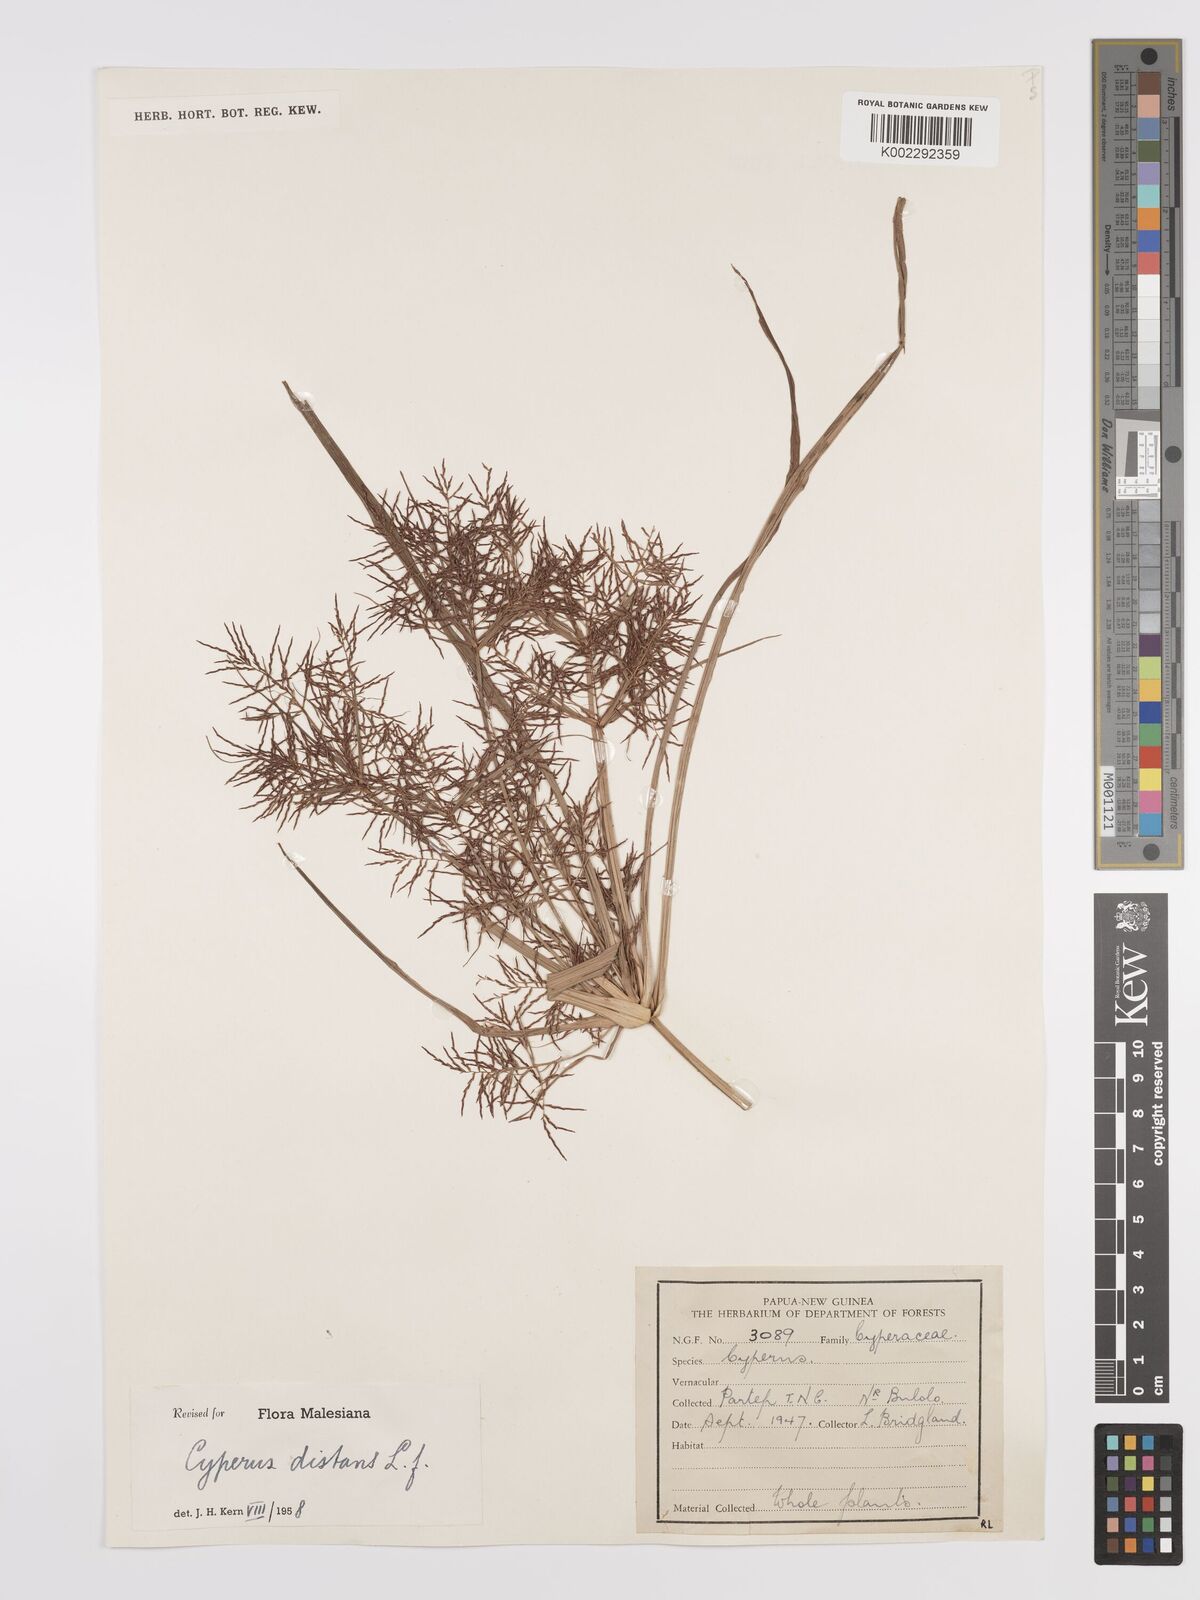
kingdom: Plantae
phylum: Tracheophyta
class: Liliopsida
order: Poales
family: Cyperaceae
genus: Cyperus
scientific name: Cyperus distans
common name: Slender cyperus
